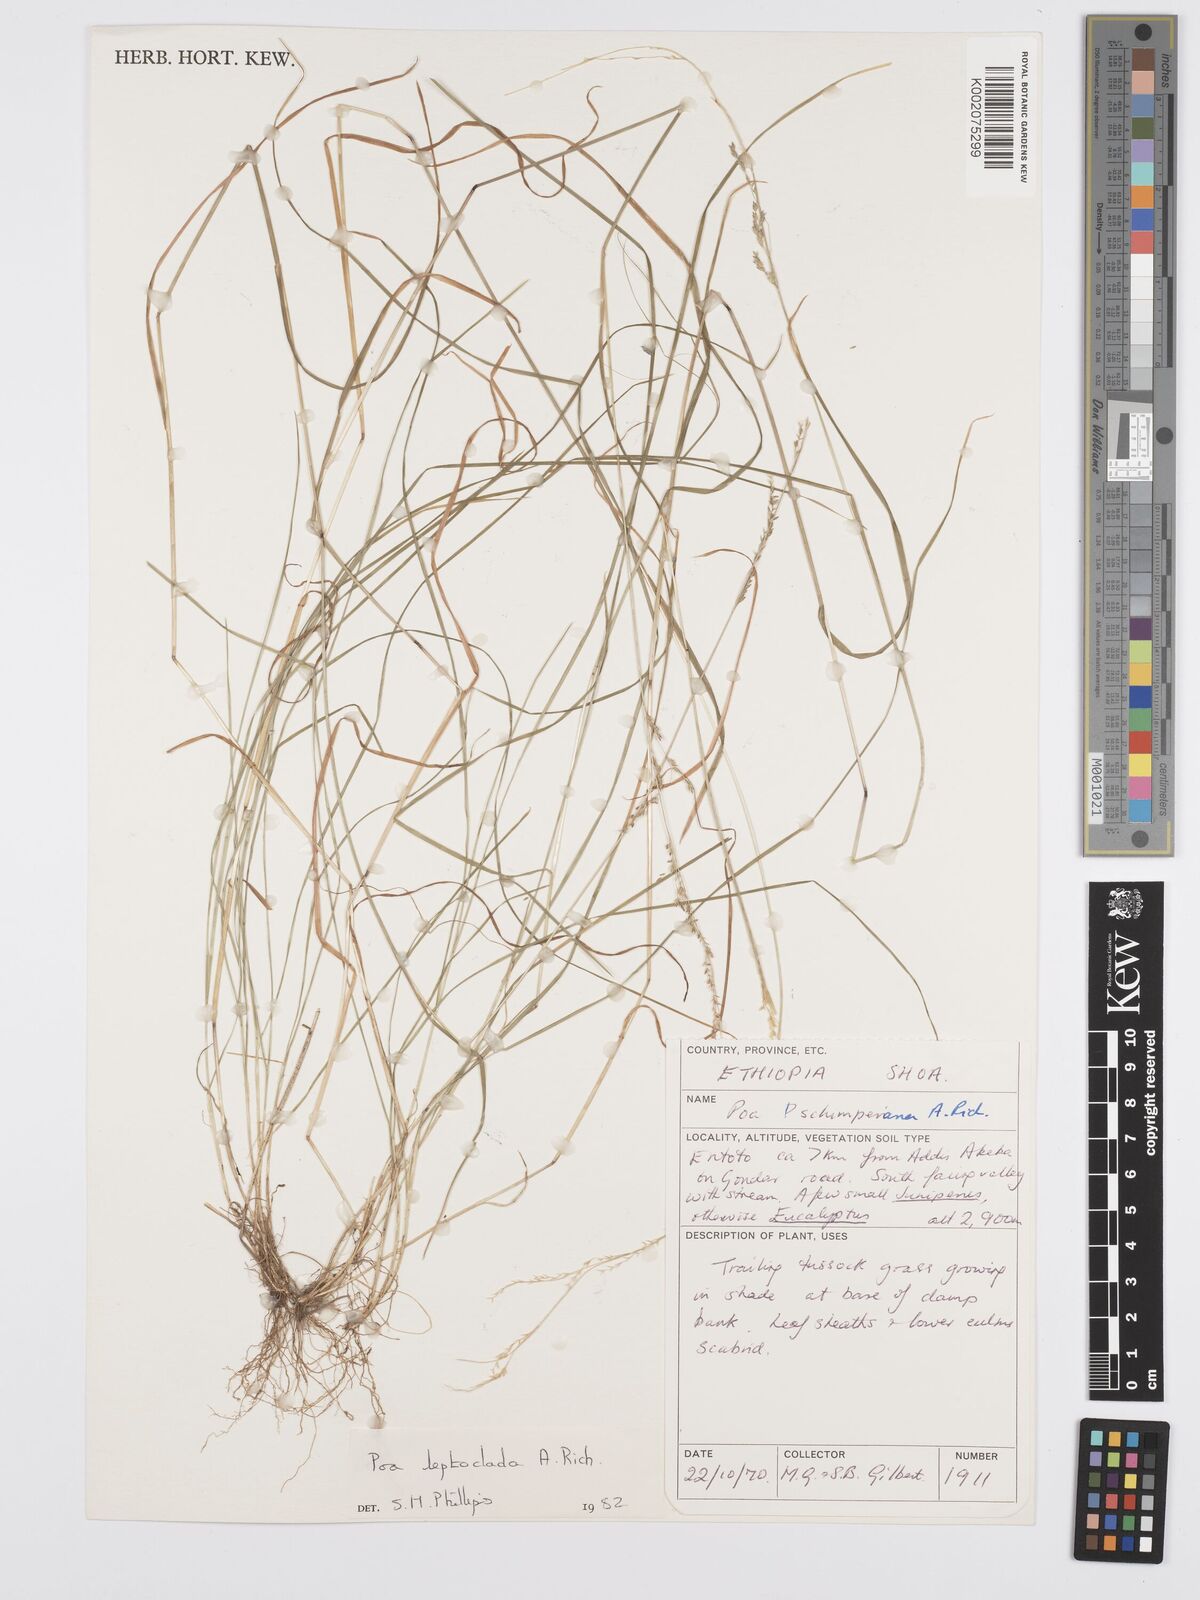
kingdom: Plantae
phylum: Tracheophyta
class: Liliopsida
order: Poales
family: Poaceae
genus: Poa
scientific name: Poa leptoclada
